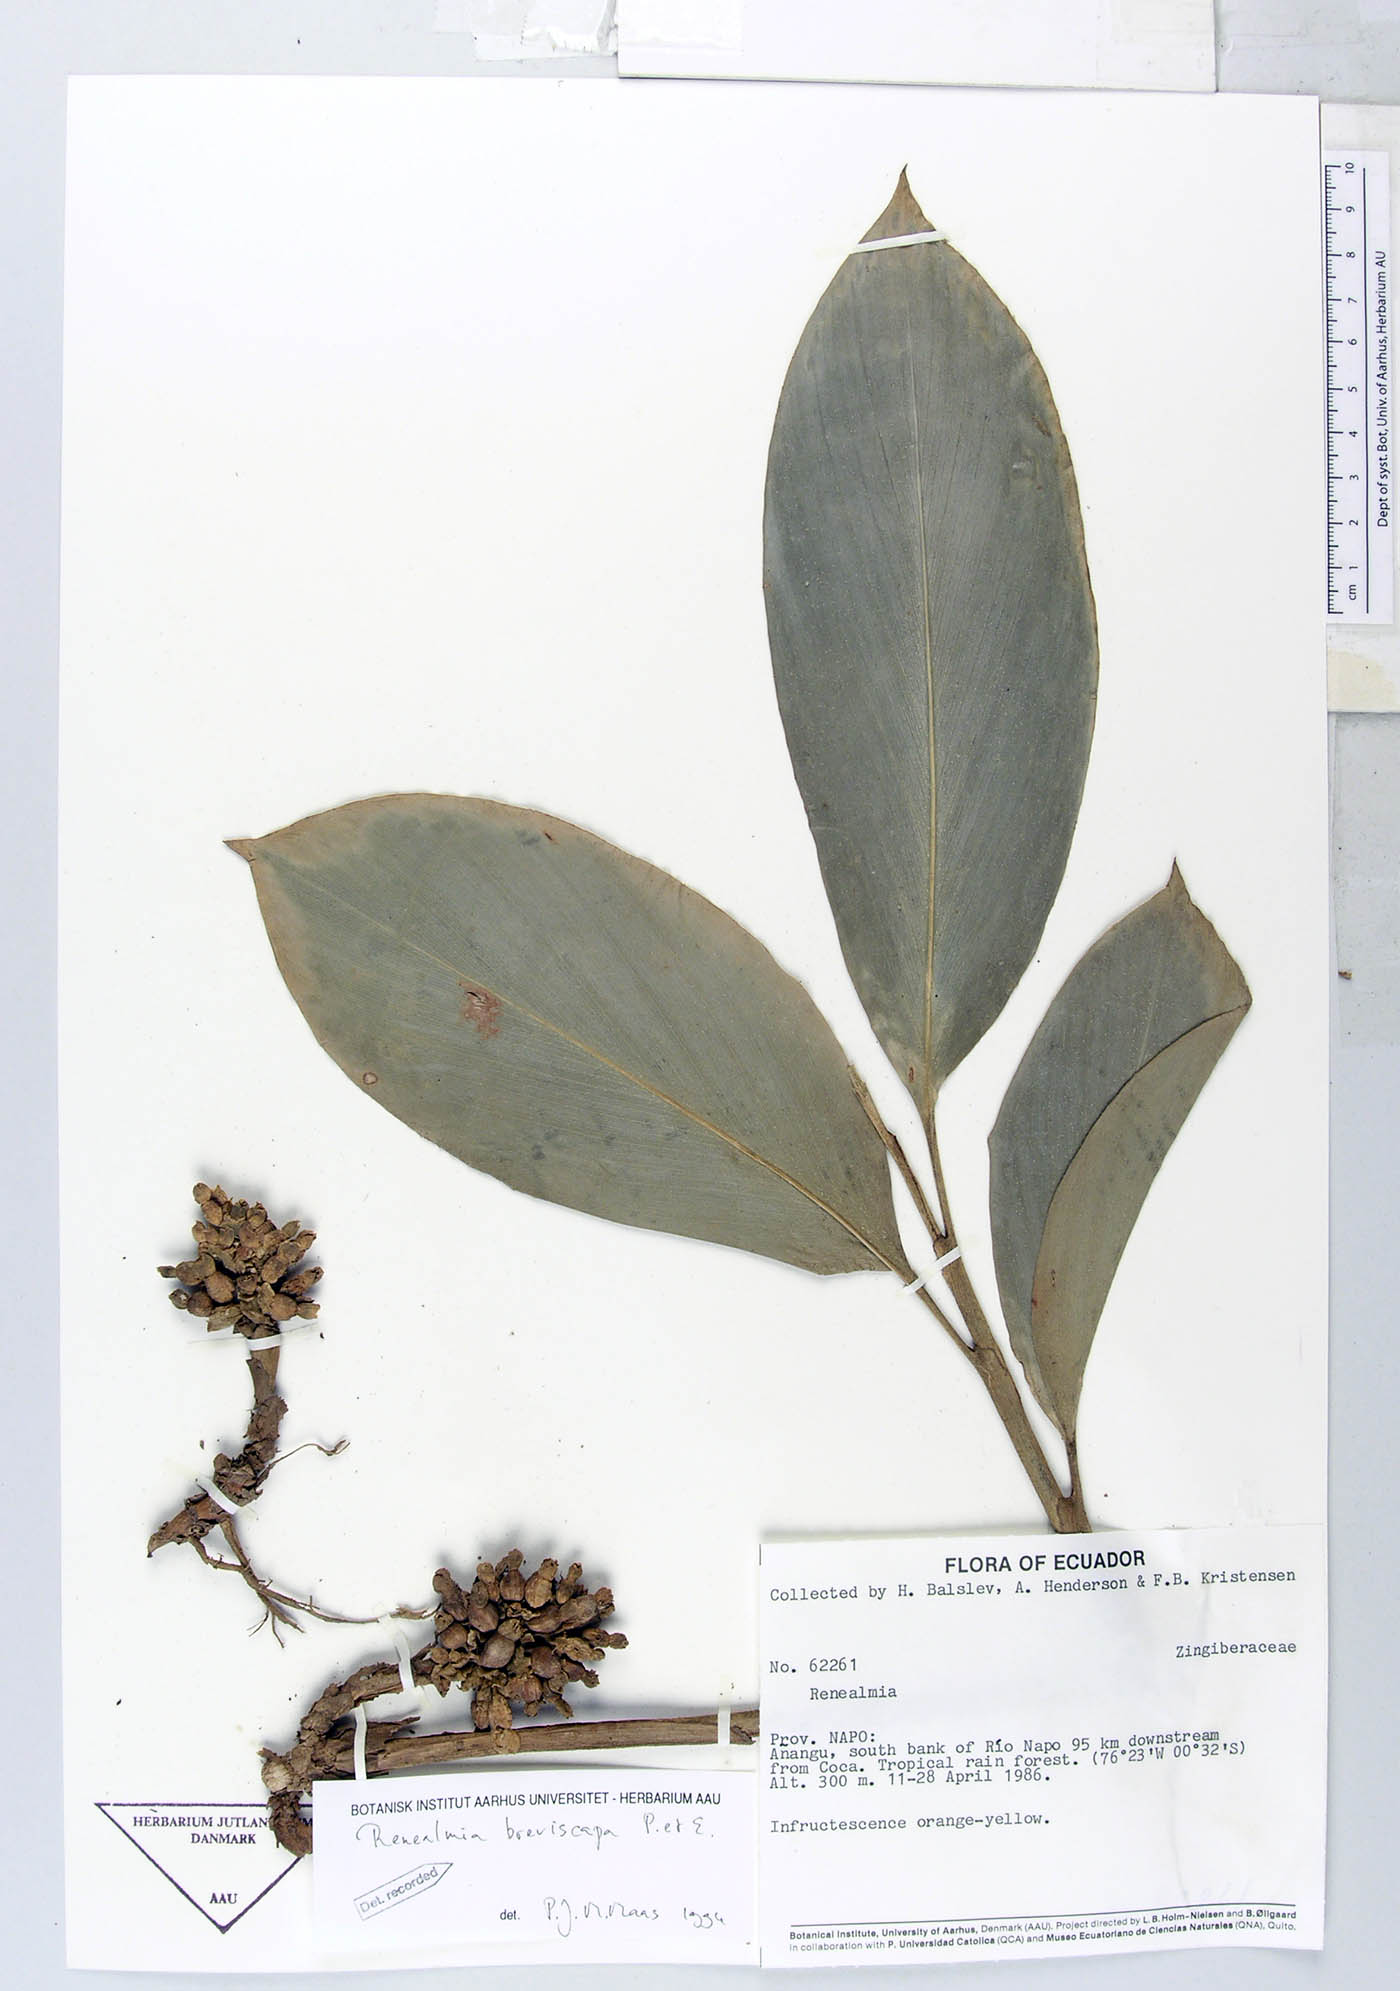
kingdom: Plantae
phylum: Tracheophyta
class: Liliopsida
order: Zingiberales
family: Zingiberaceae
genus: Renealmia
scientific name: Renealmia breviscapa
